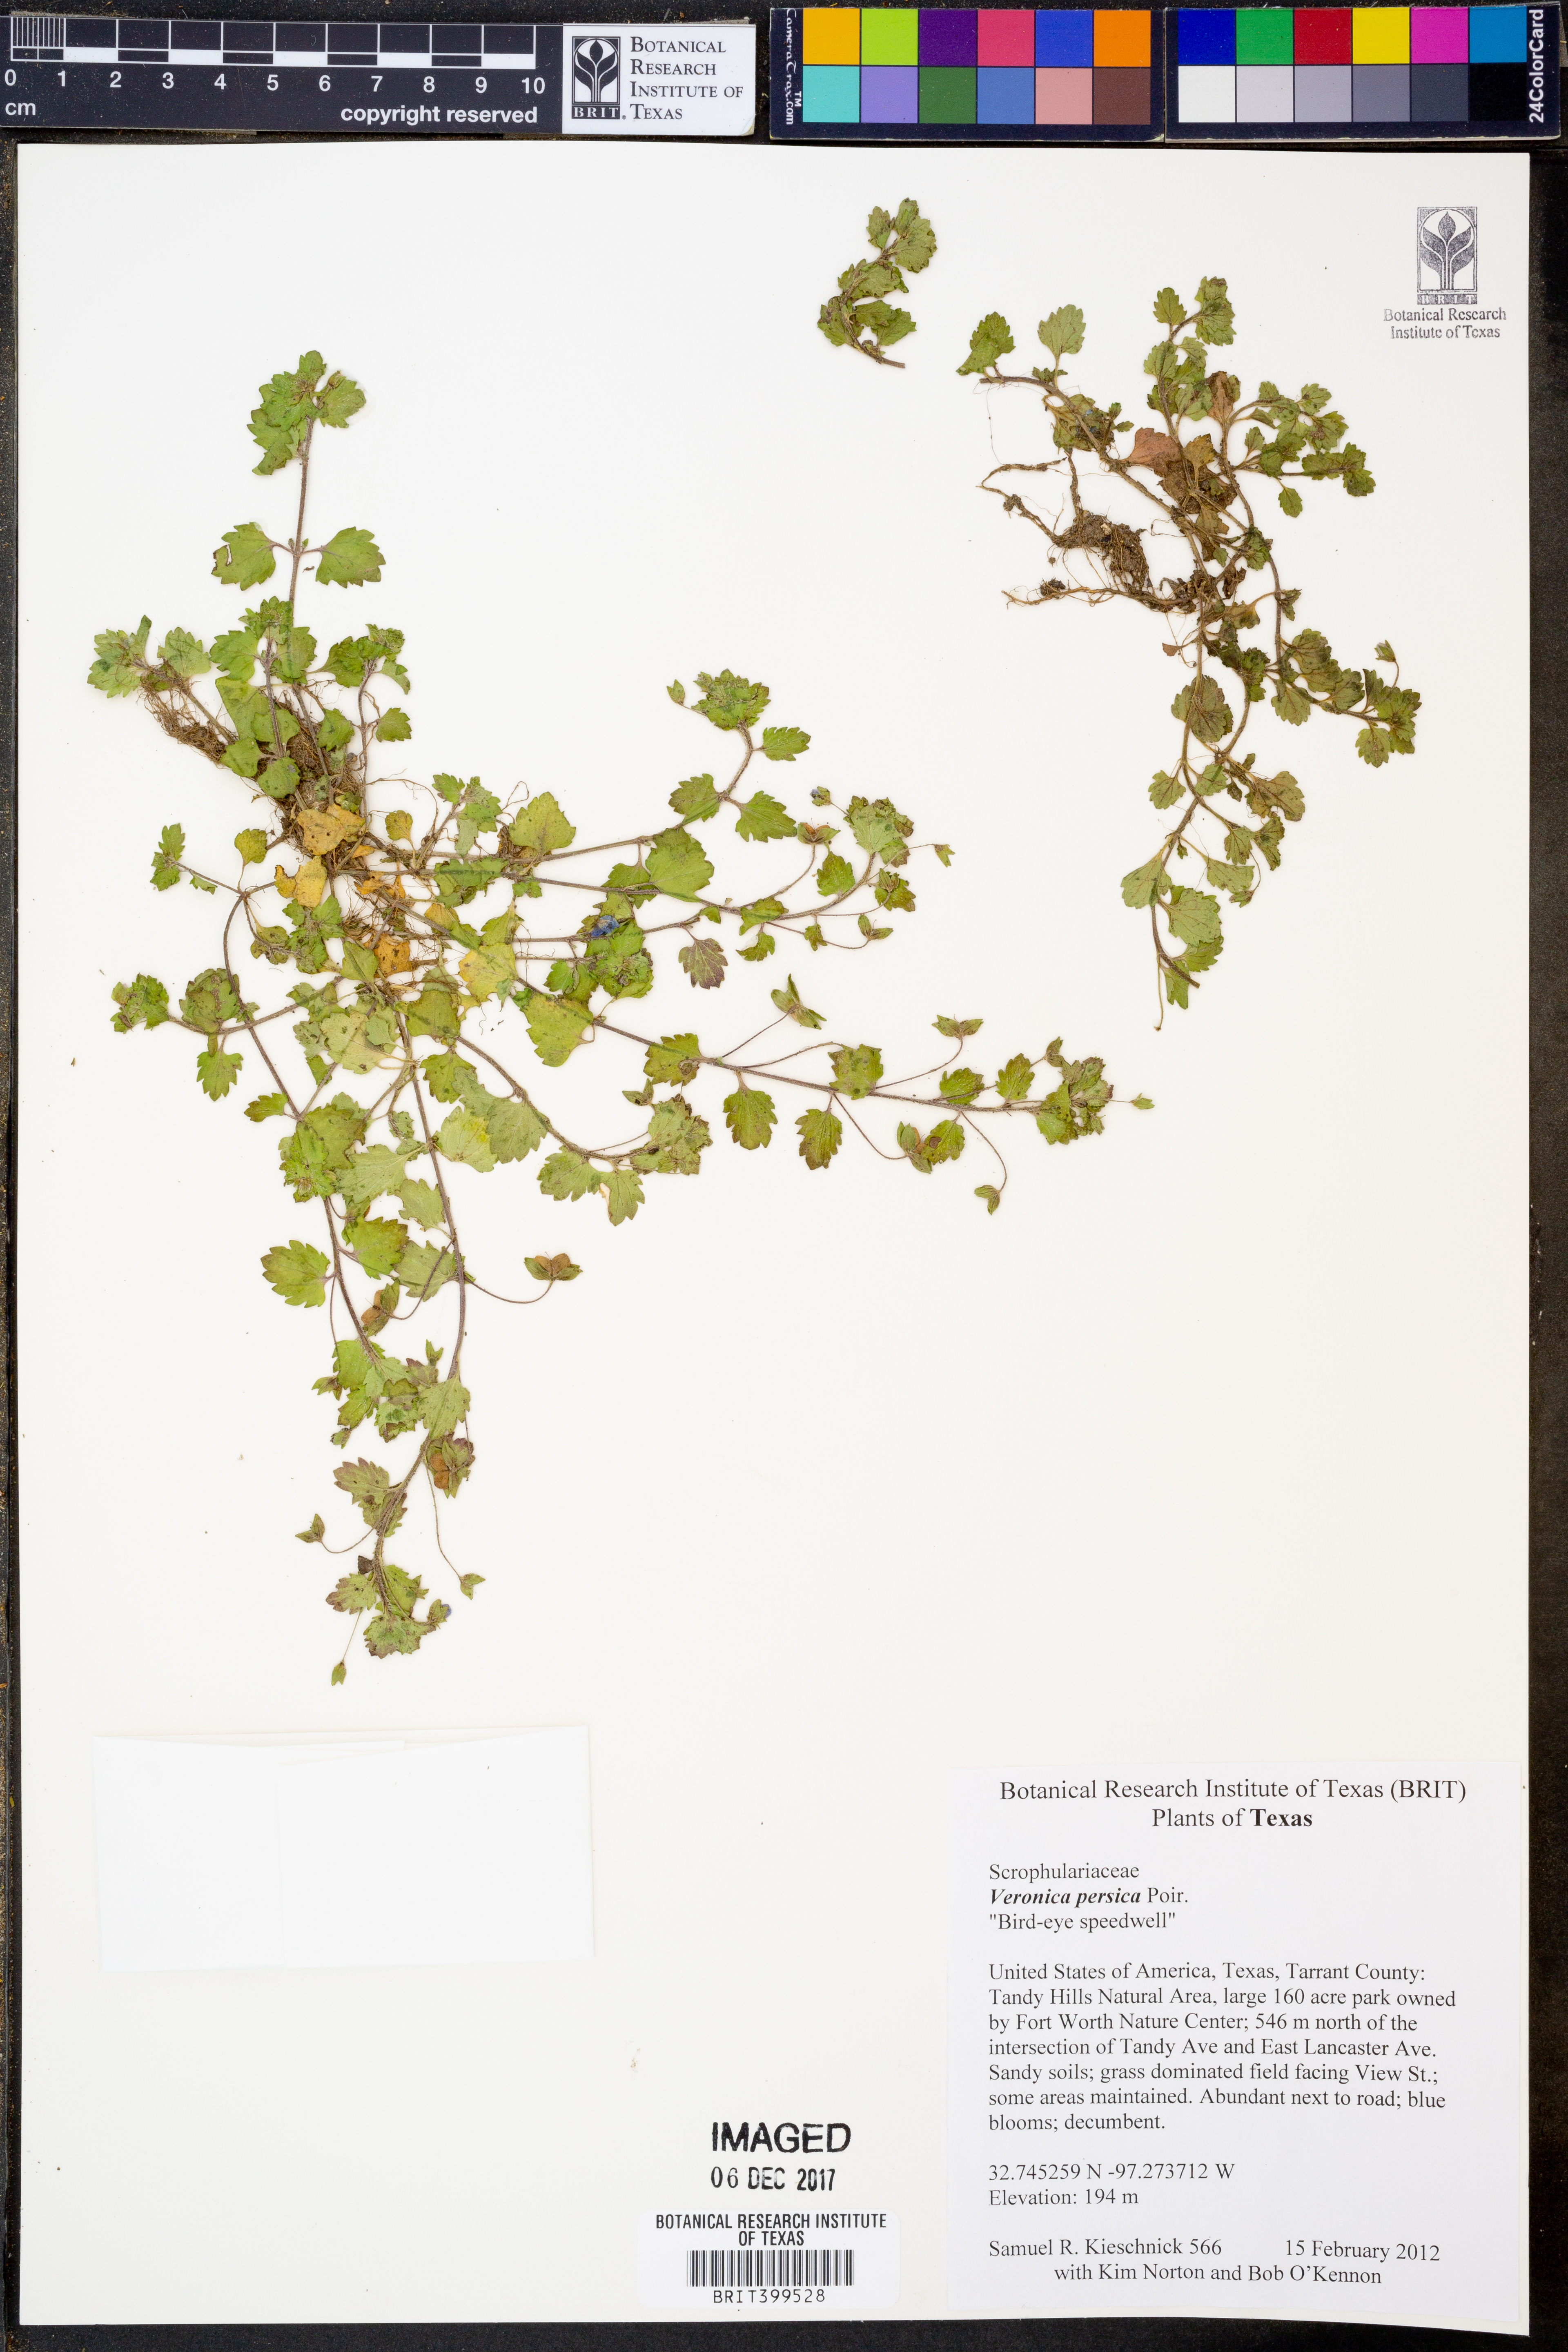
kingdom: Plantae
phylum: Tracheophyta
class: Magnoliopsida
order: Lamiales
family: Plantaginaceae
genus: Veronica
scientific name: Veronica persica
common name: Common field-speedwell
